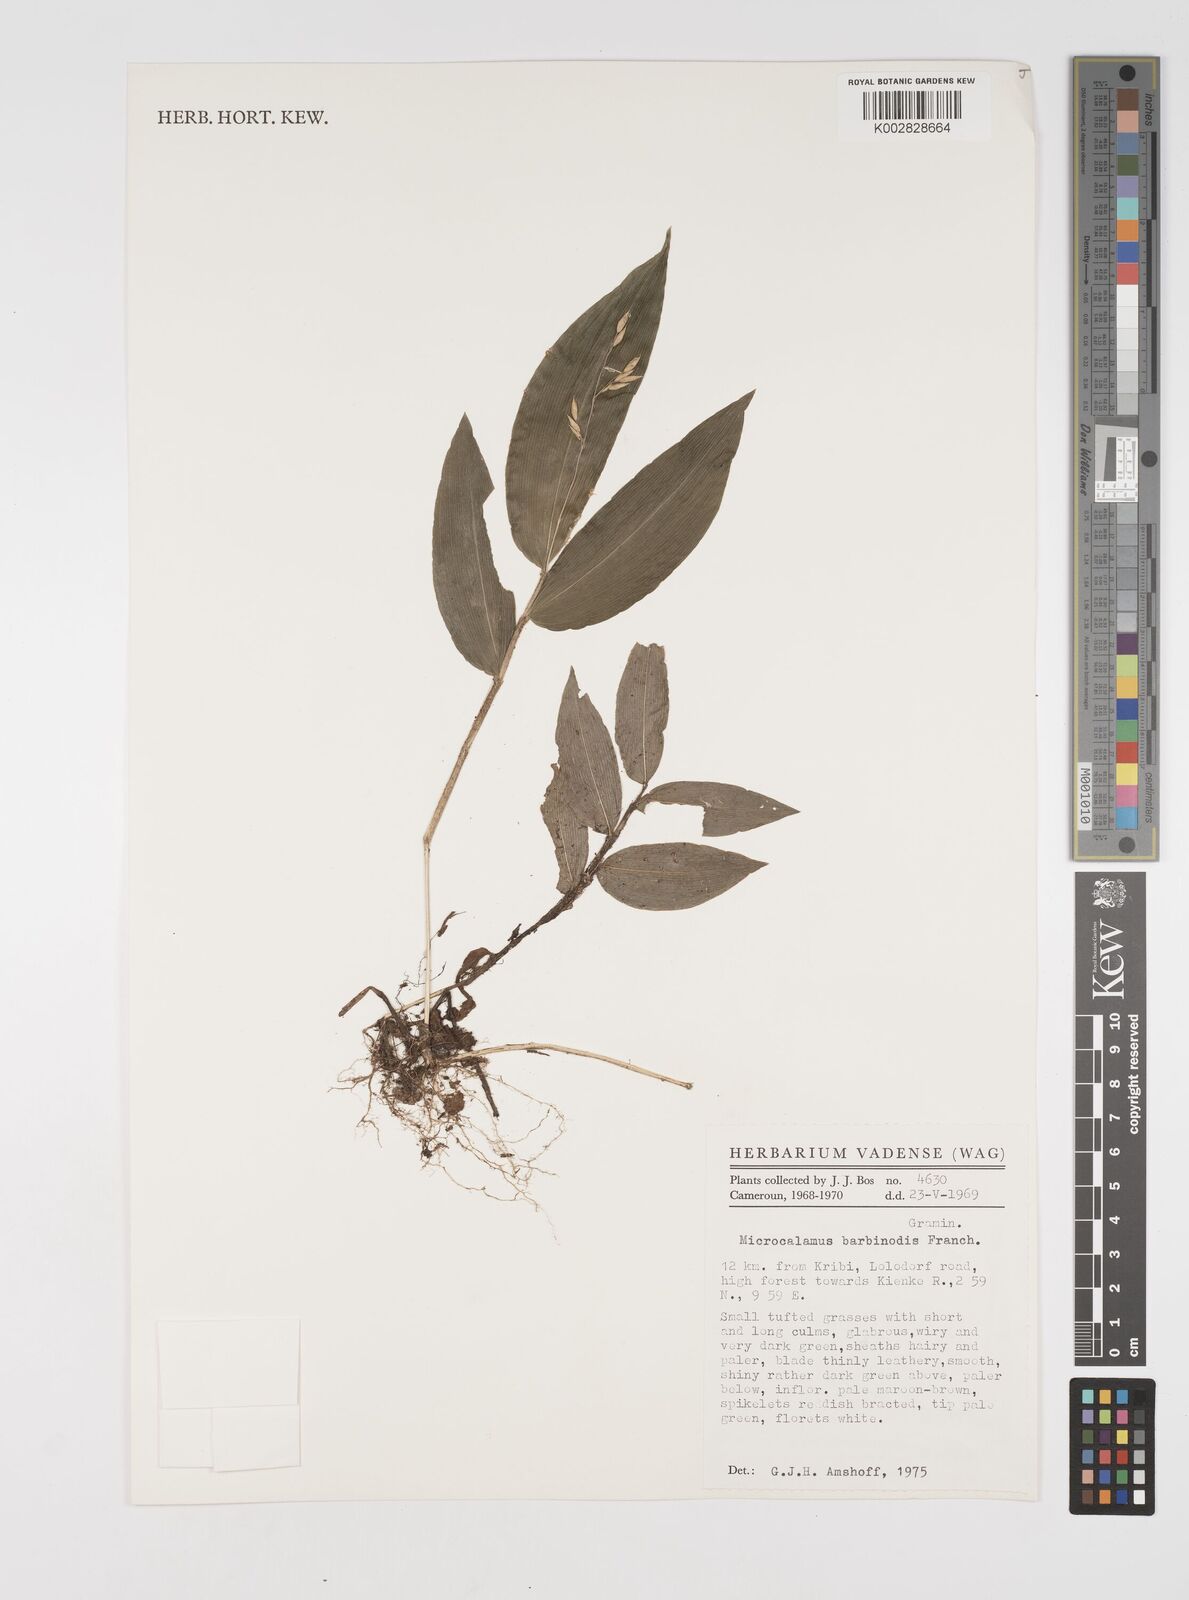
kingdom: Plantae
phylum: Tracheophyta
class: Liliopsida
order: Poales
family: Poaceae
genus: Microcalamus
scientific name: Microcalamus barbinodis
